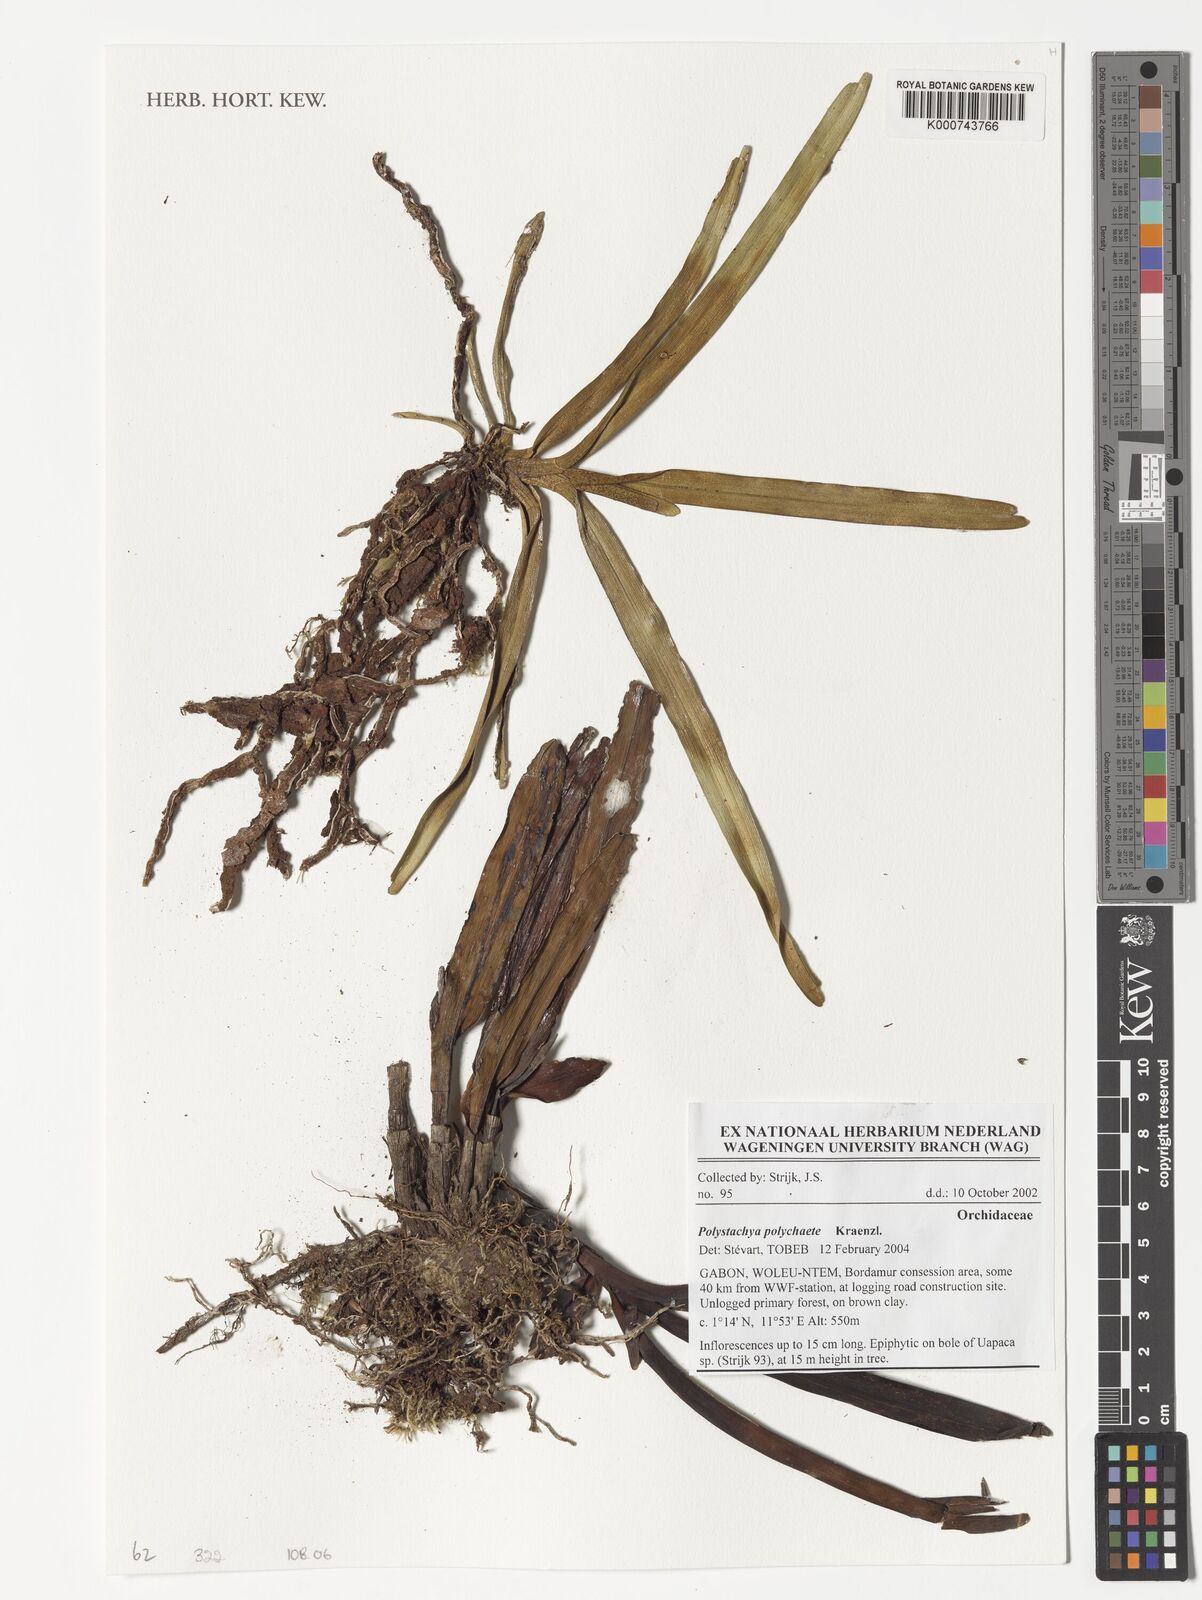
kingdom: Plantae
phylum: Tracheophyta
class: Liliopsida
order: Asparagales
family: Orchidaceae
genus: Polystachya
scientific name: Polystachya polychaete
